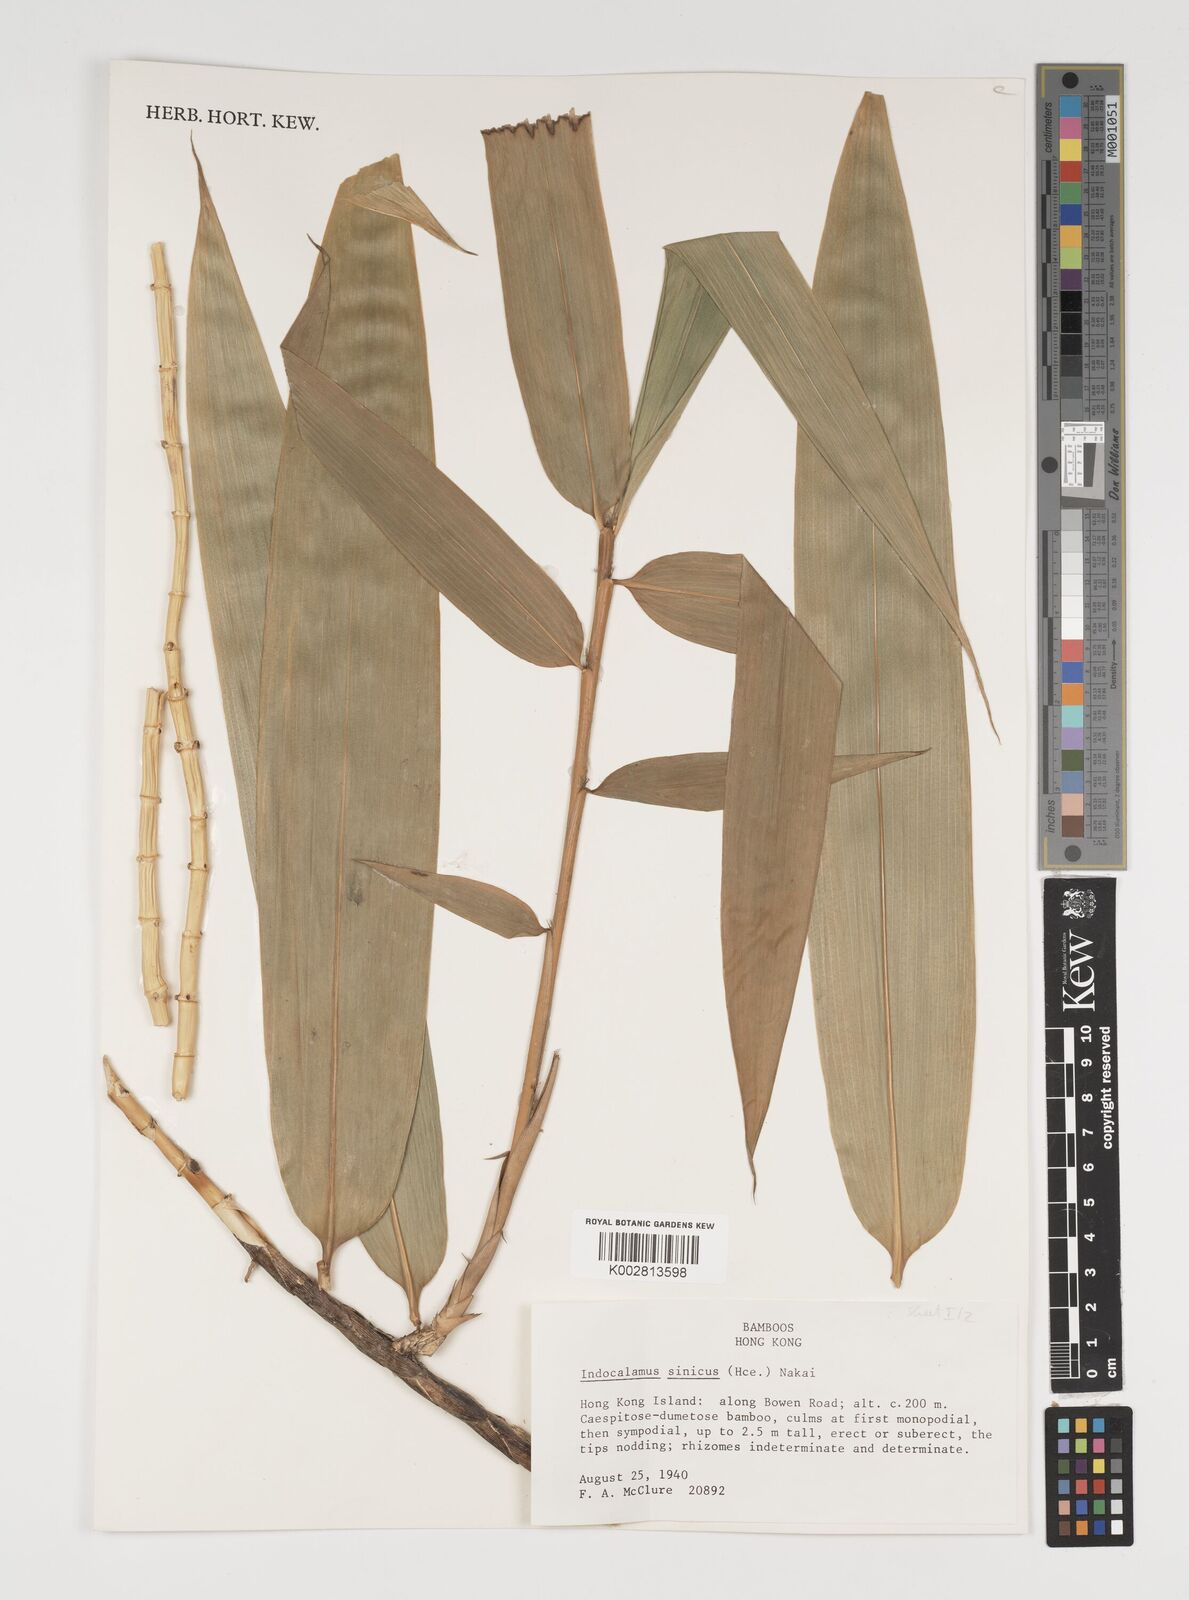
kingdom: Plantae
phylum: Tracheophyta
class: Liliopsida
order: Poales
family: Poaceae
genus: Indocalamus
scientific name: Indocalamus sinicus
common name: Chinese cane
